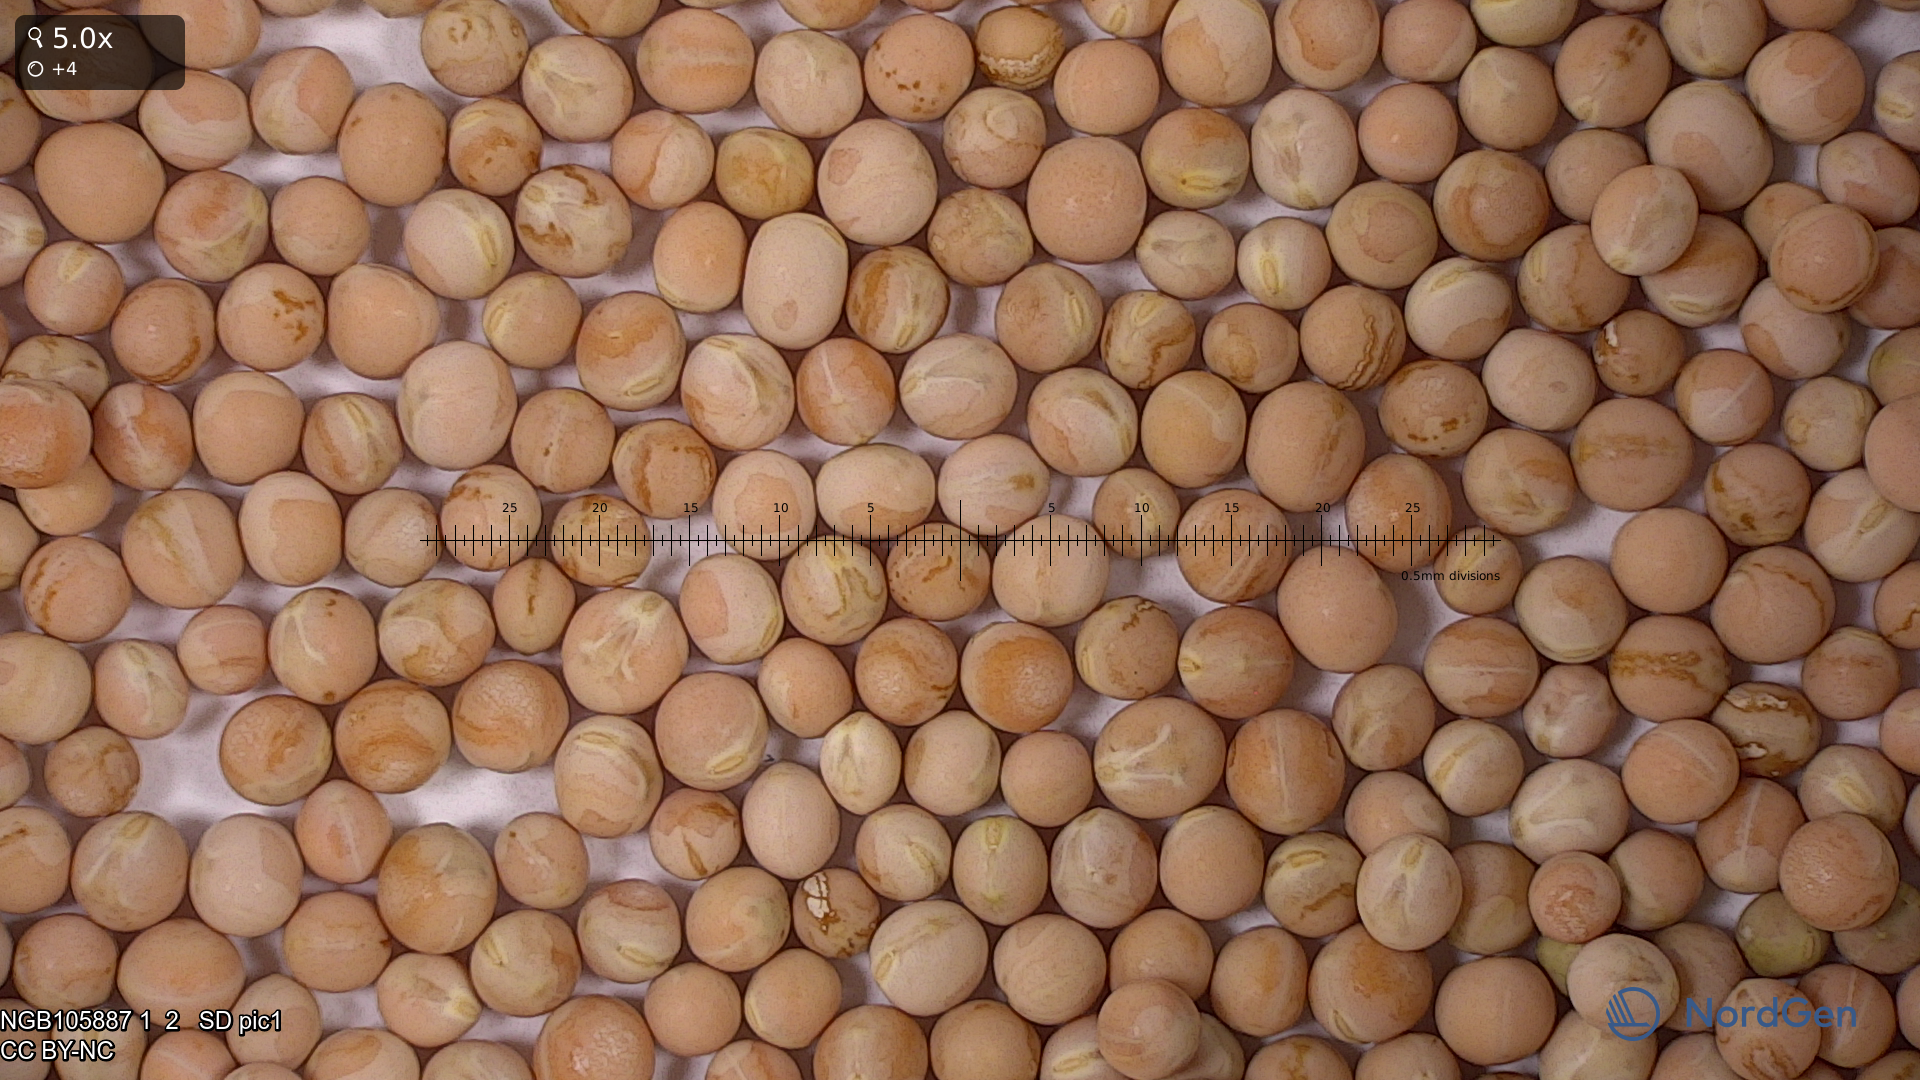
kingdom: Plantae
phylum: Tracheophyta
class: Magnoliopsida
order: Fabales
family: Fabaceae
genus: Lathyrus
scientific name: Lathyrus oleraceus
